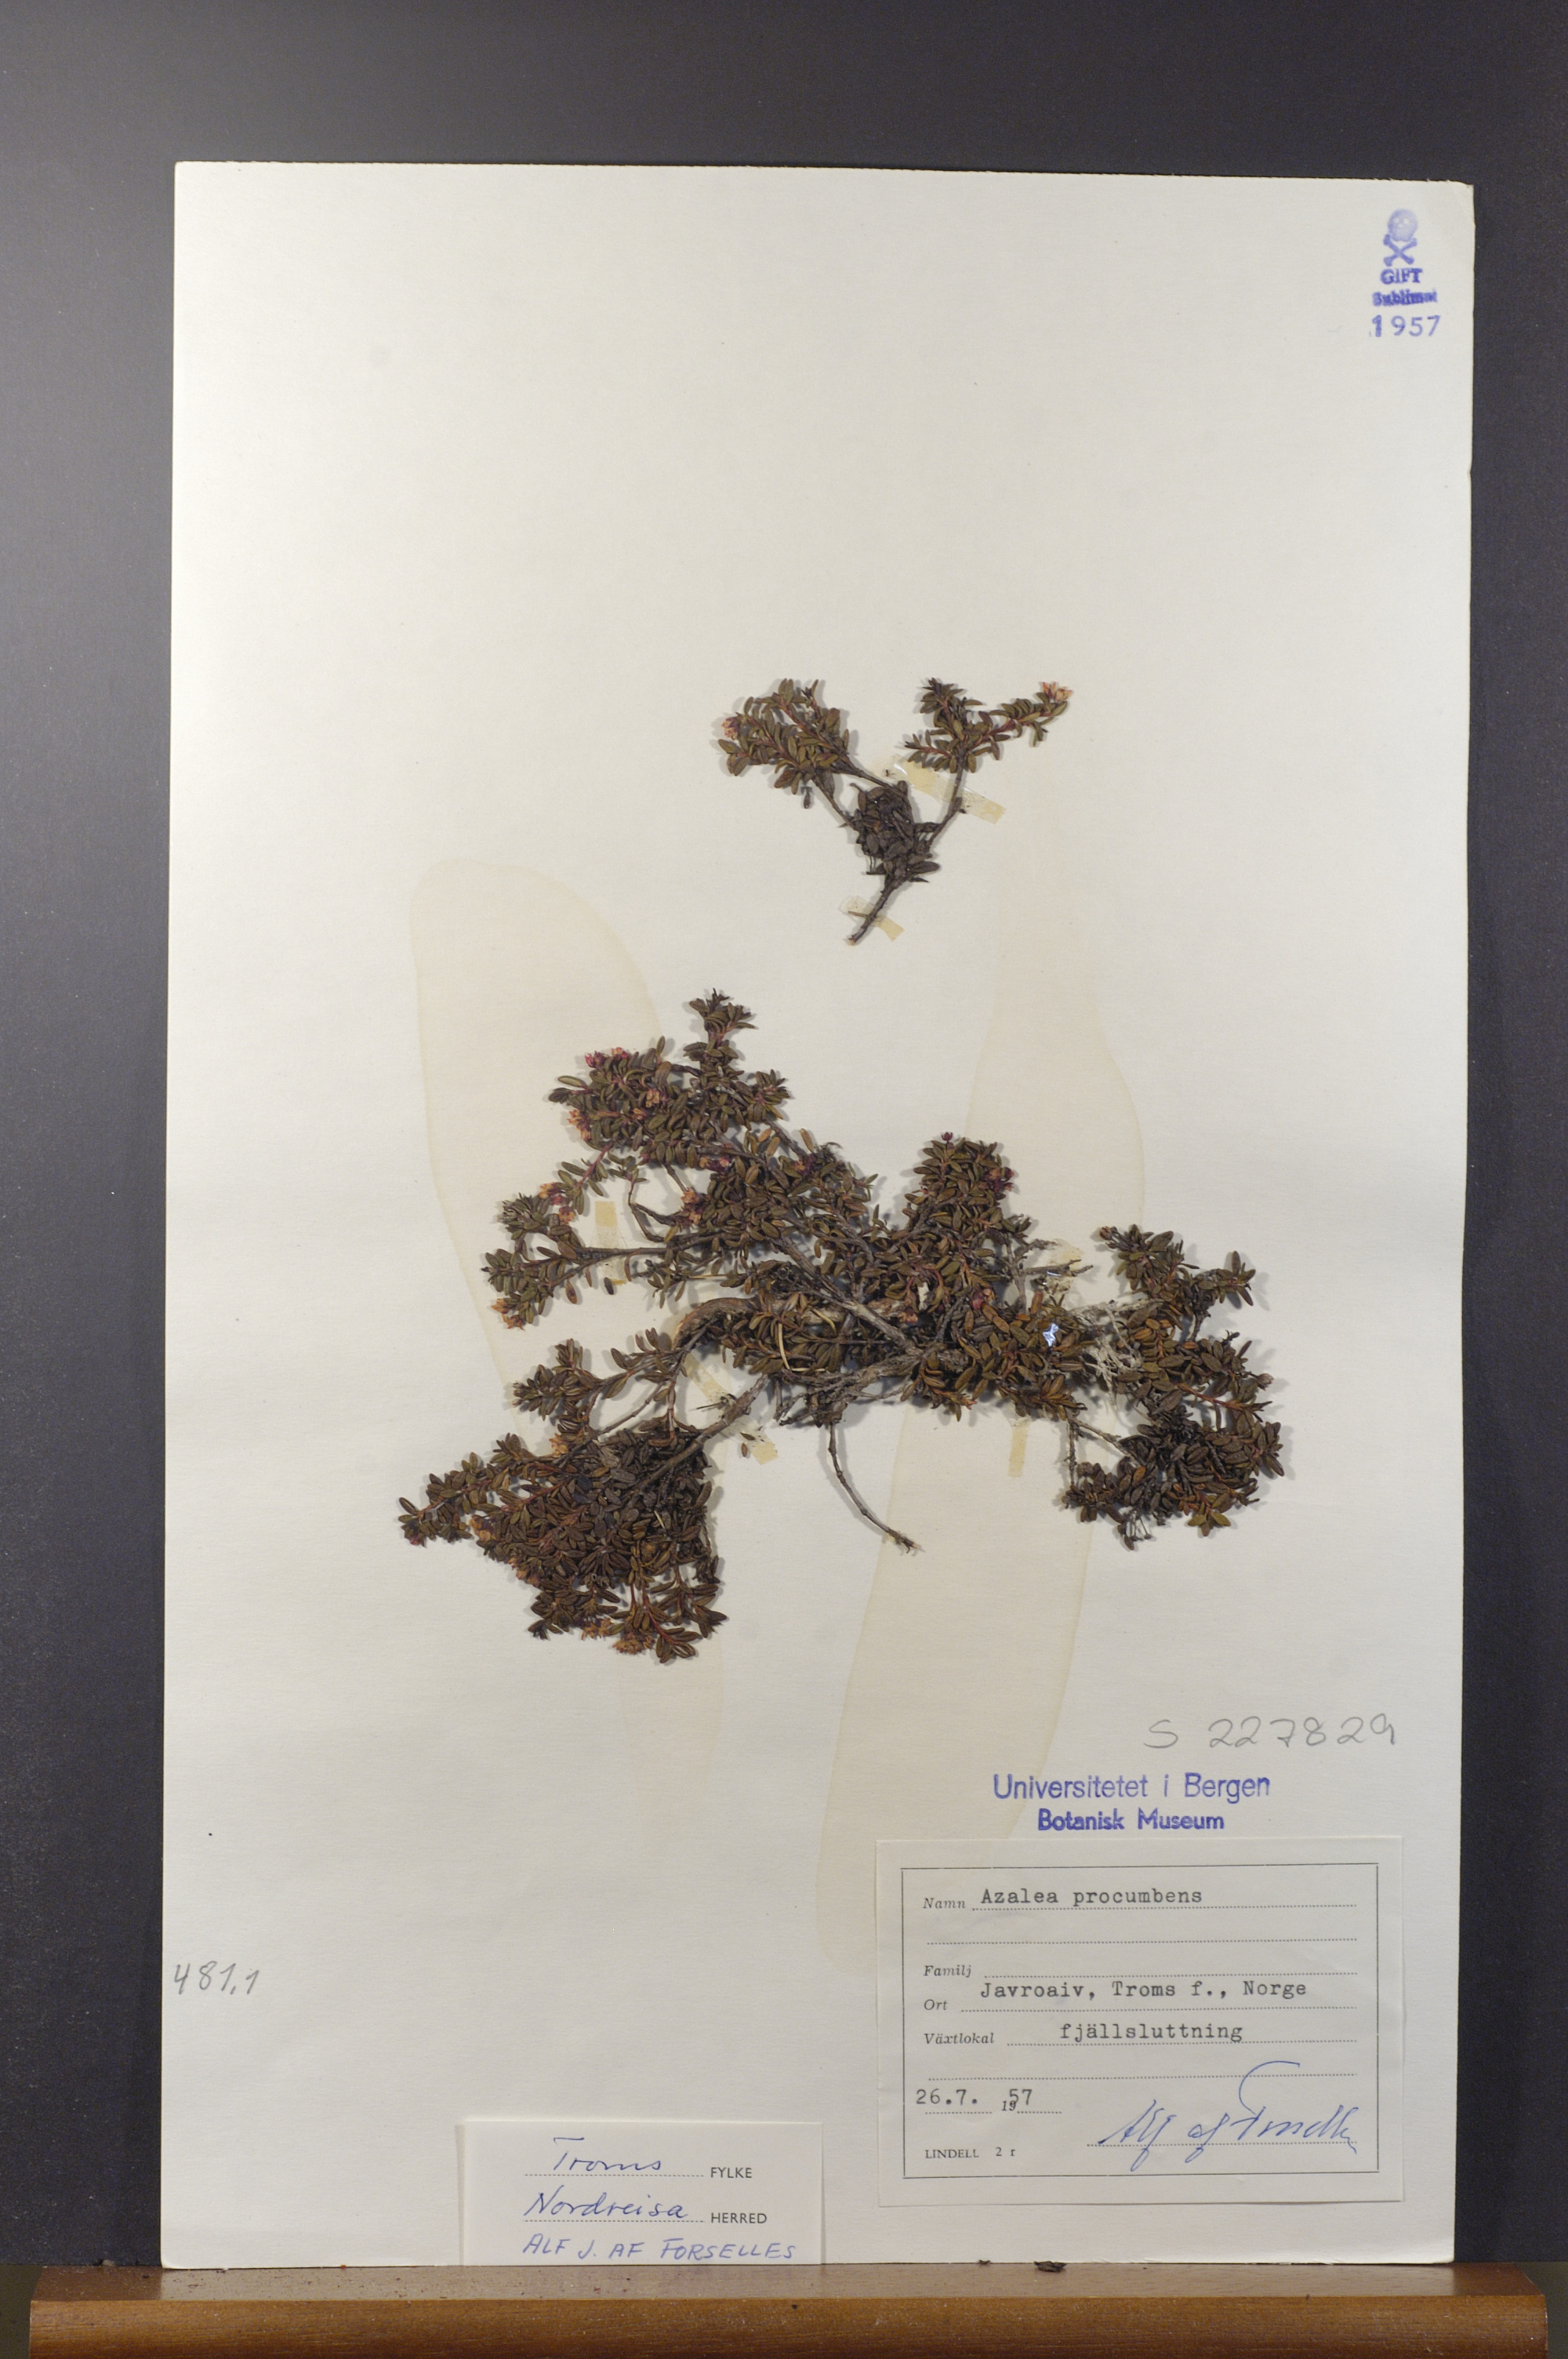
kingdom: Plantae
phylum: Tracheophyta
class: Magnoliopsida
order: Ericales
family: Ericaceae
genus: Kalmia
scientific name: Kalmia procumbens
